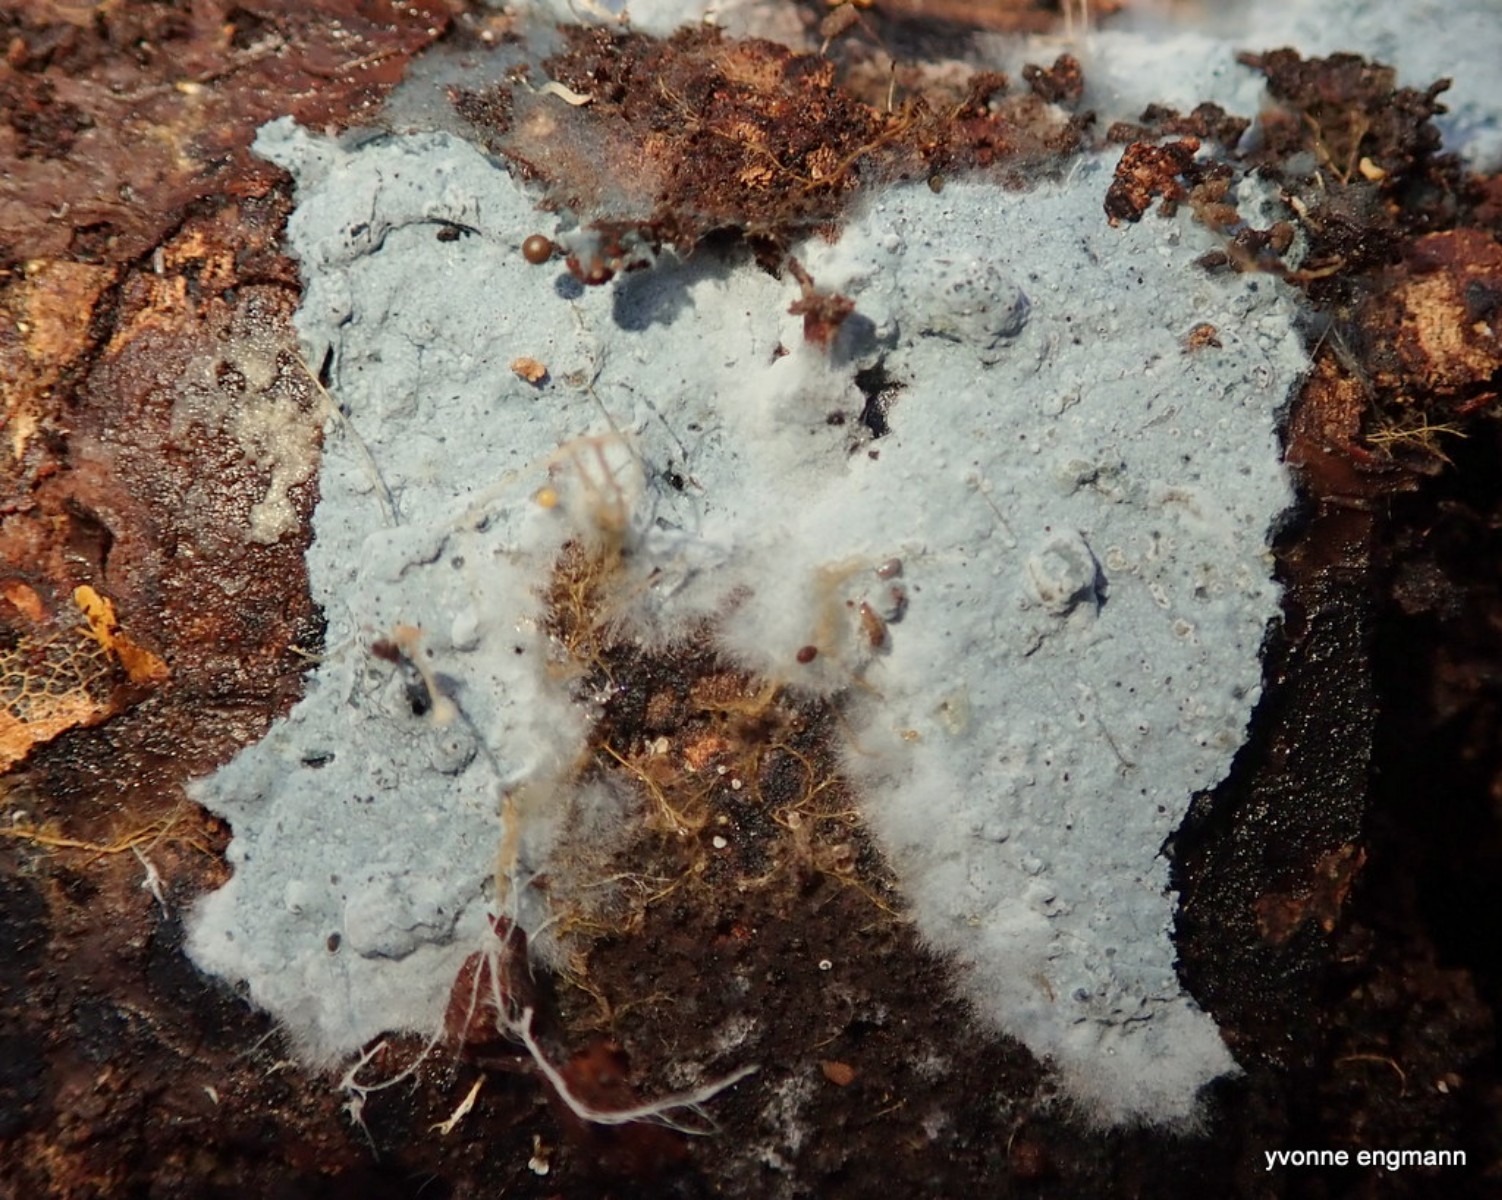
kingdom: Fungi
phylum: Basidiomycota
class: Agaricomycetes
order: Corticiales
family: Corticiaceae
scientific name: Corticiaceae
